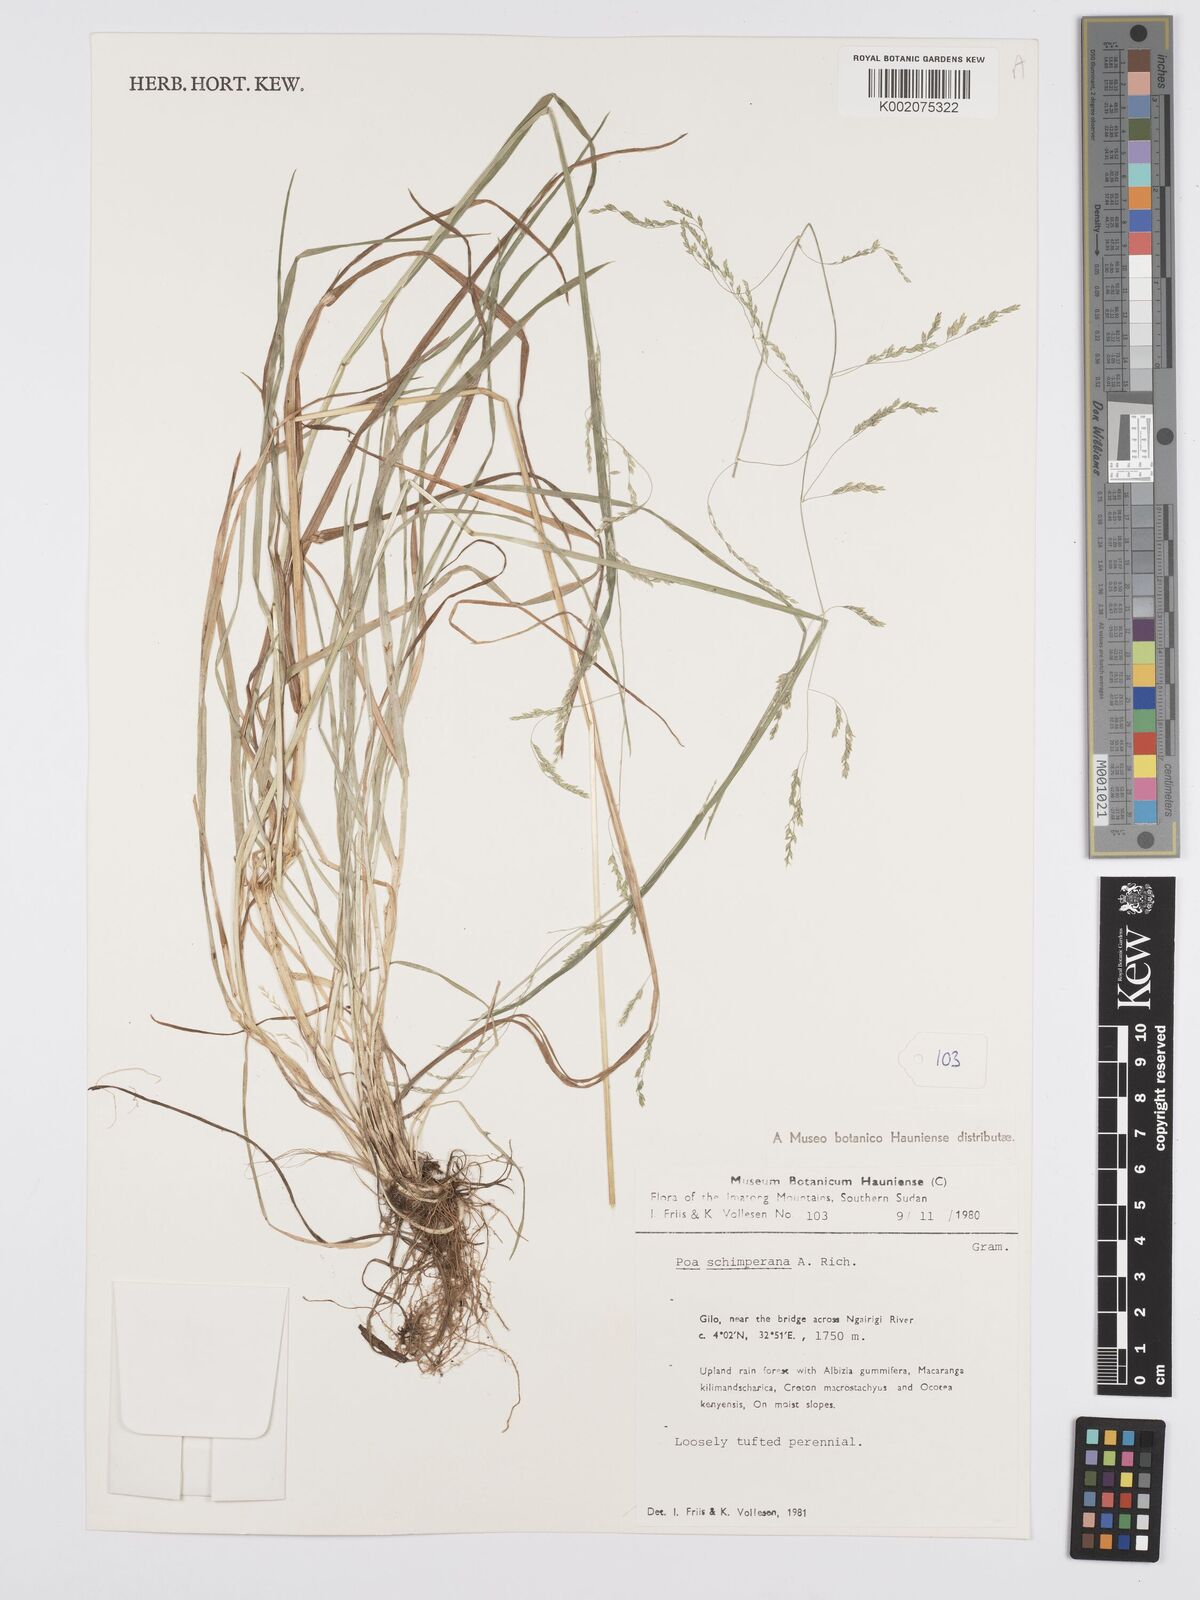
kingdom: Plantae
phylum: Tracheophyta
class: Liliopsida
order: Poales
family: Poaceae
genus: Poa
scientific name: Poa schimperiana
